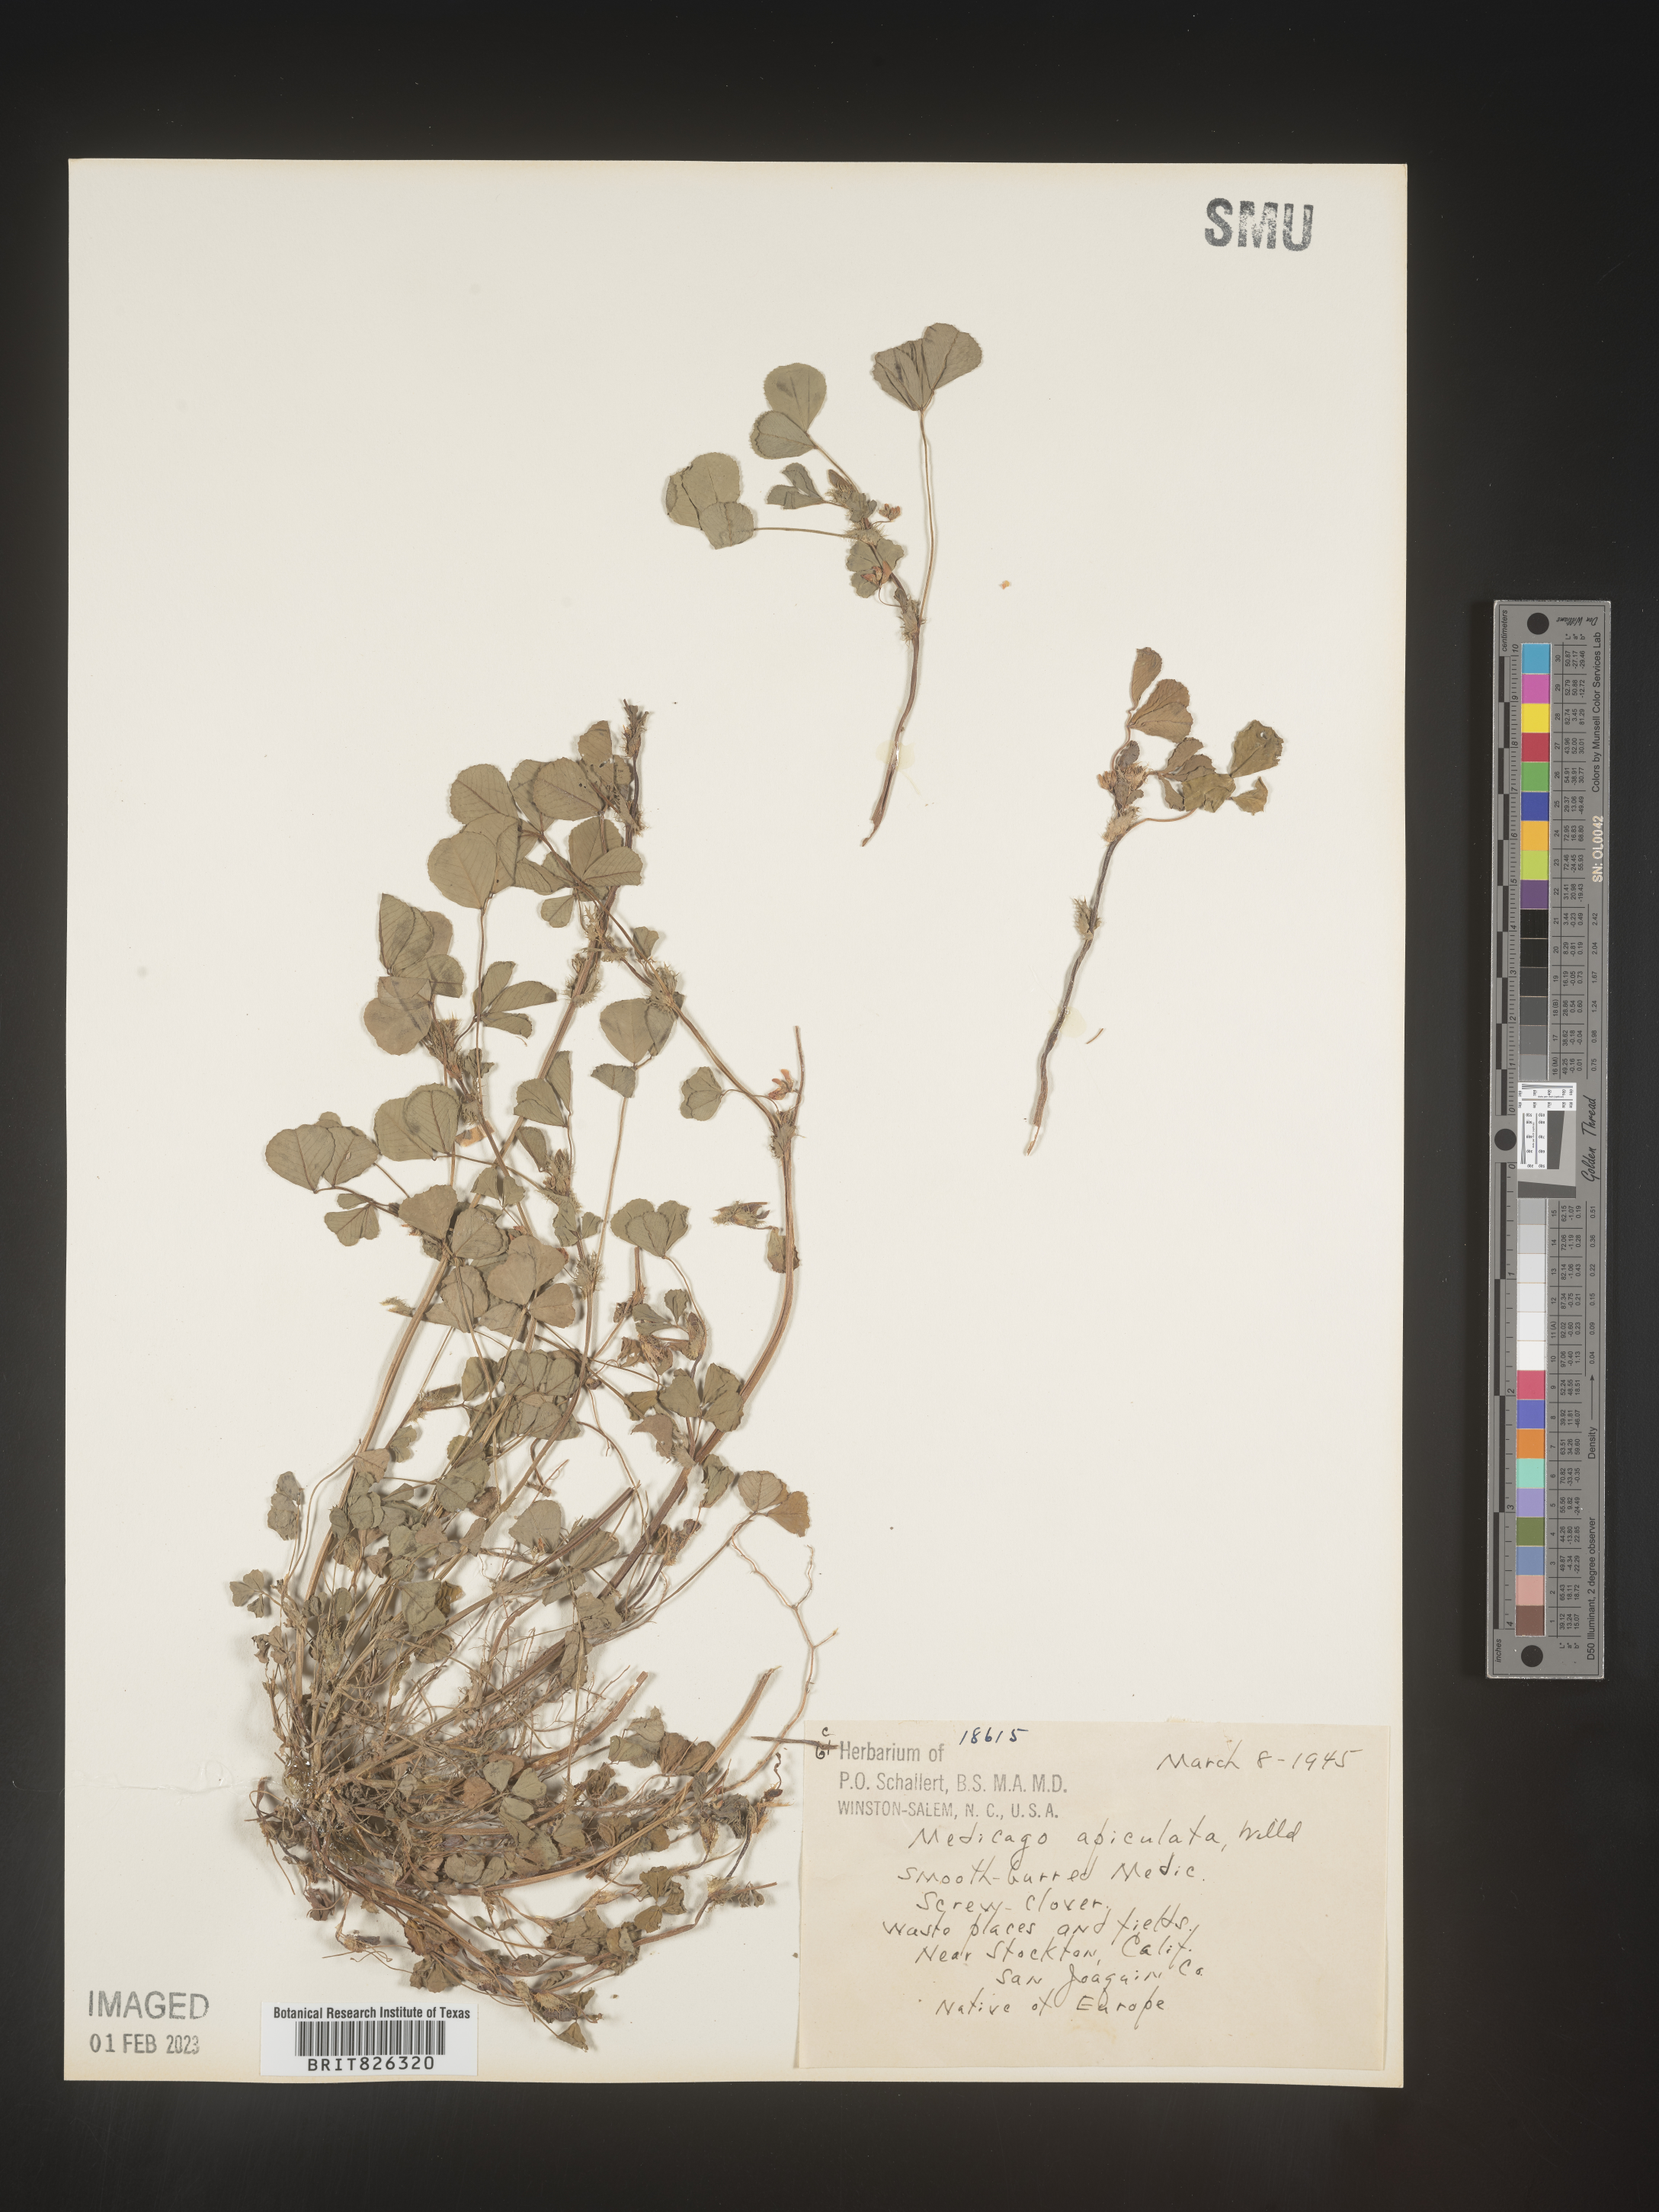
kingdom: Plantae
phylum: Tracheophyta
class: Magnoliopsida
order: Fabales
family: Fabaceae
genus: Medicago
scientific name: Medicago polymorpha
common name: Burclover
